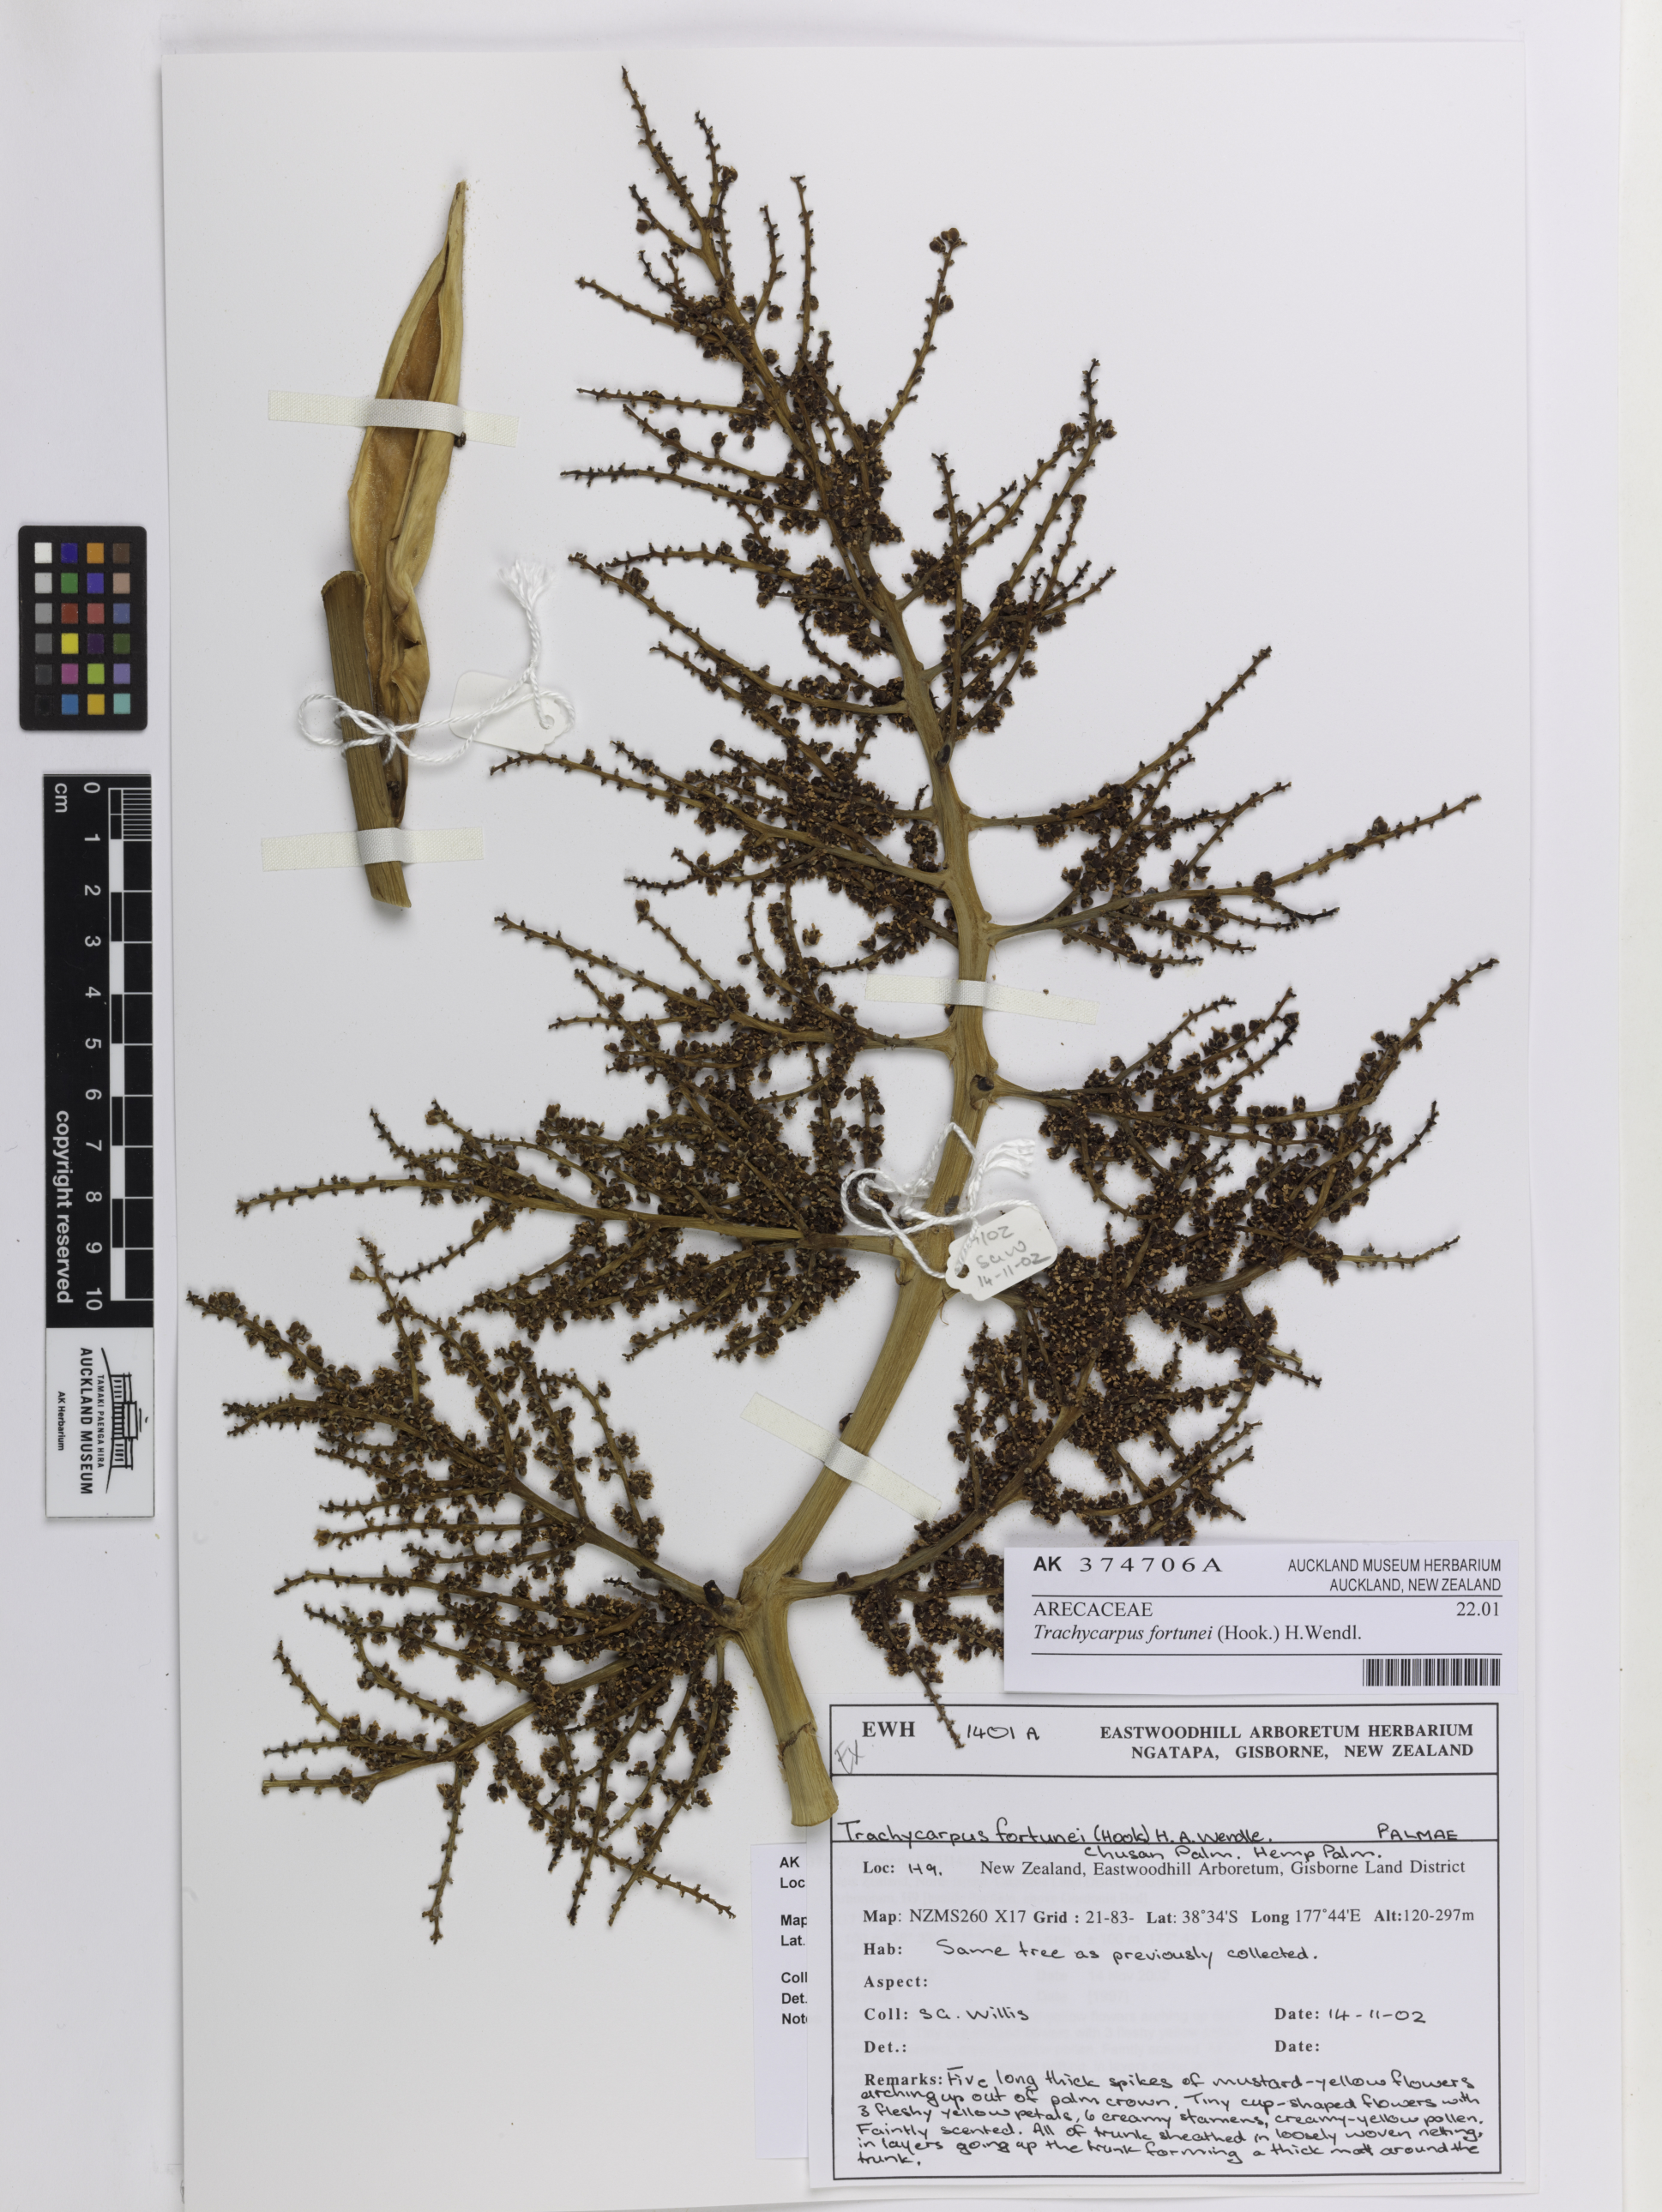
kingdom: Plantae
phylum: Tracheophyta
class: Liliopsida
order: Arecales
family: Arecaceae
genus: Trachycarpus
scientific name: Trachycarpus fortunei
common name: Chusan palm
